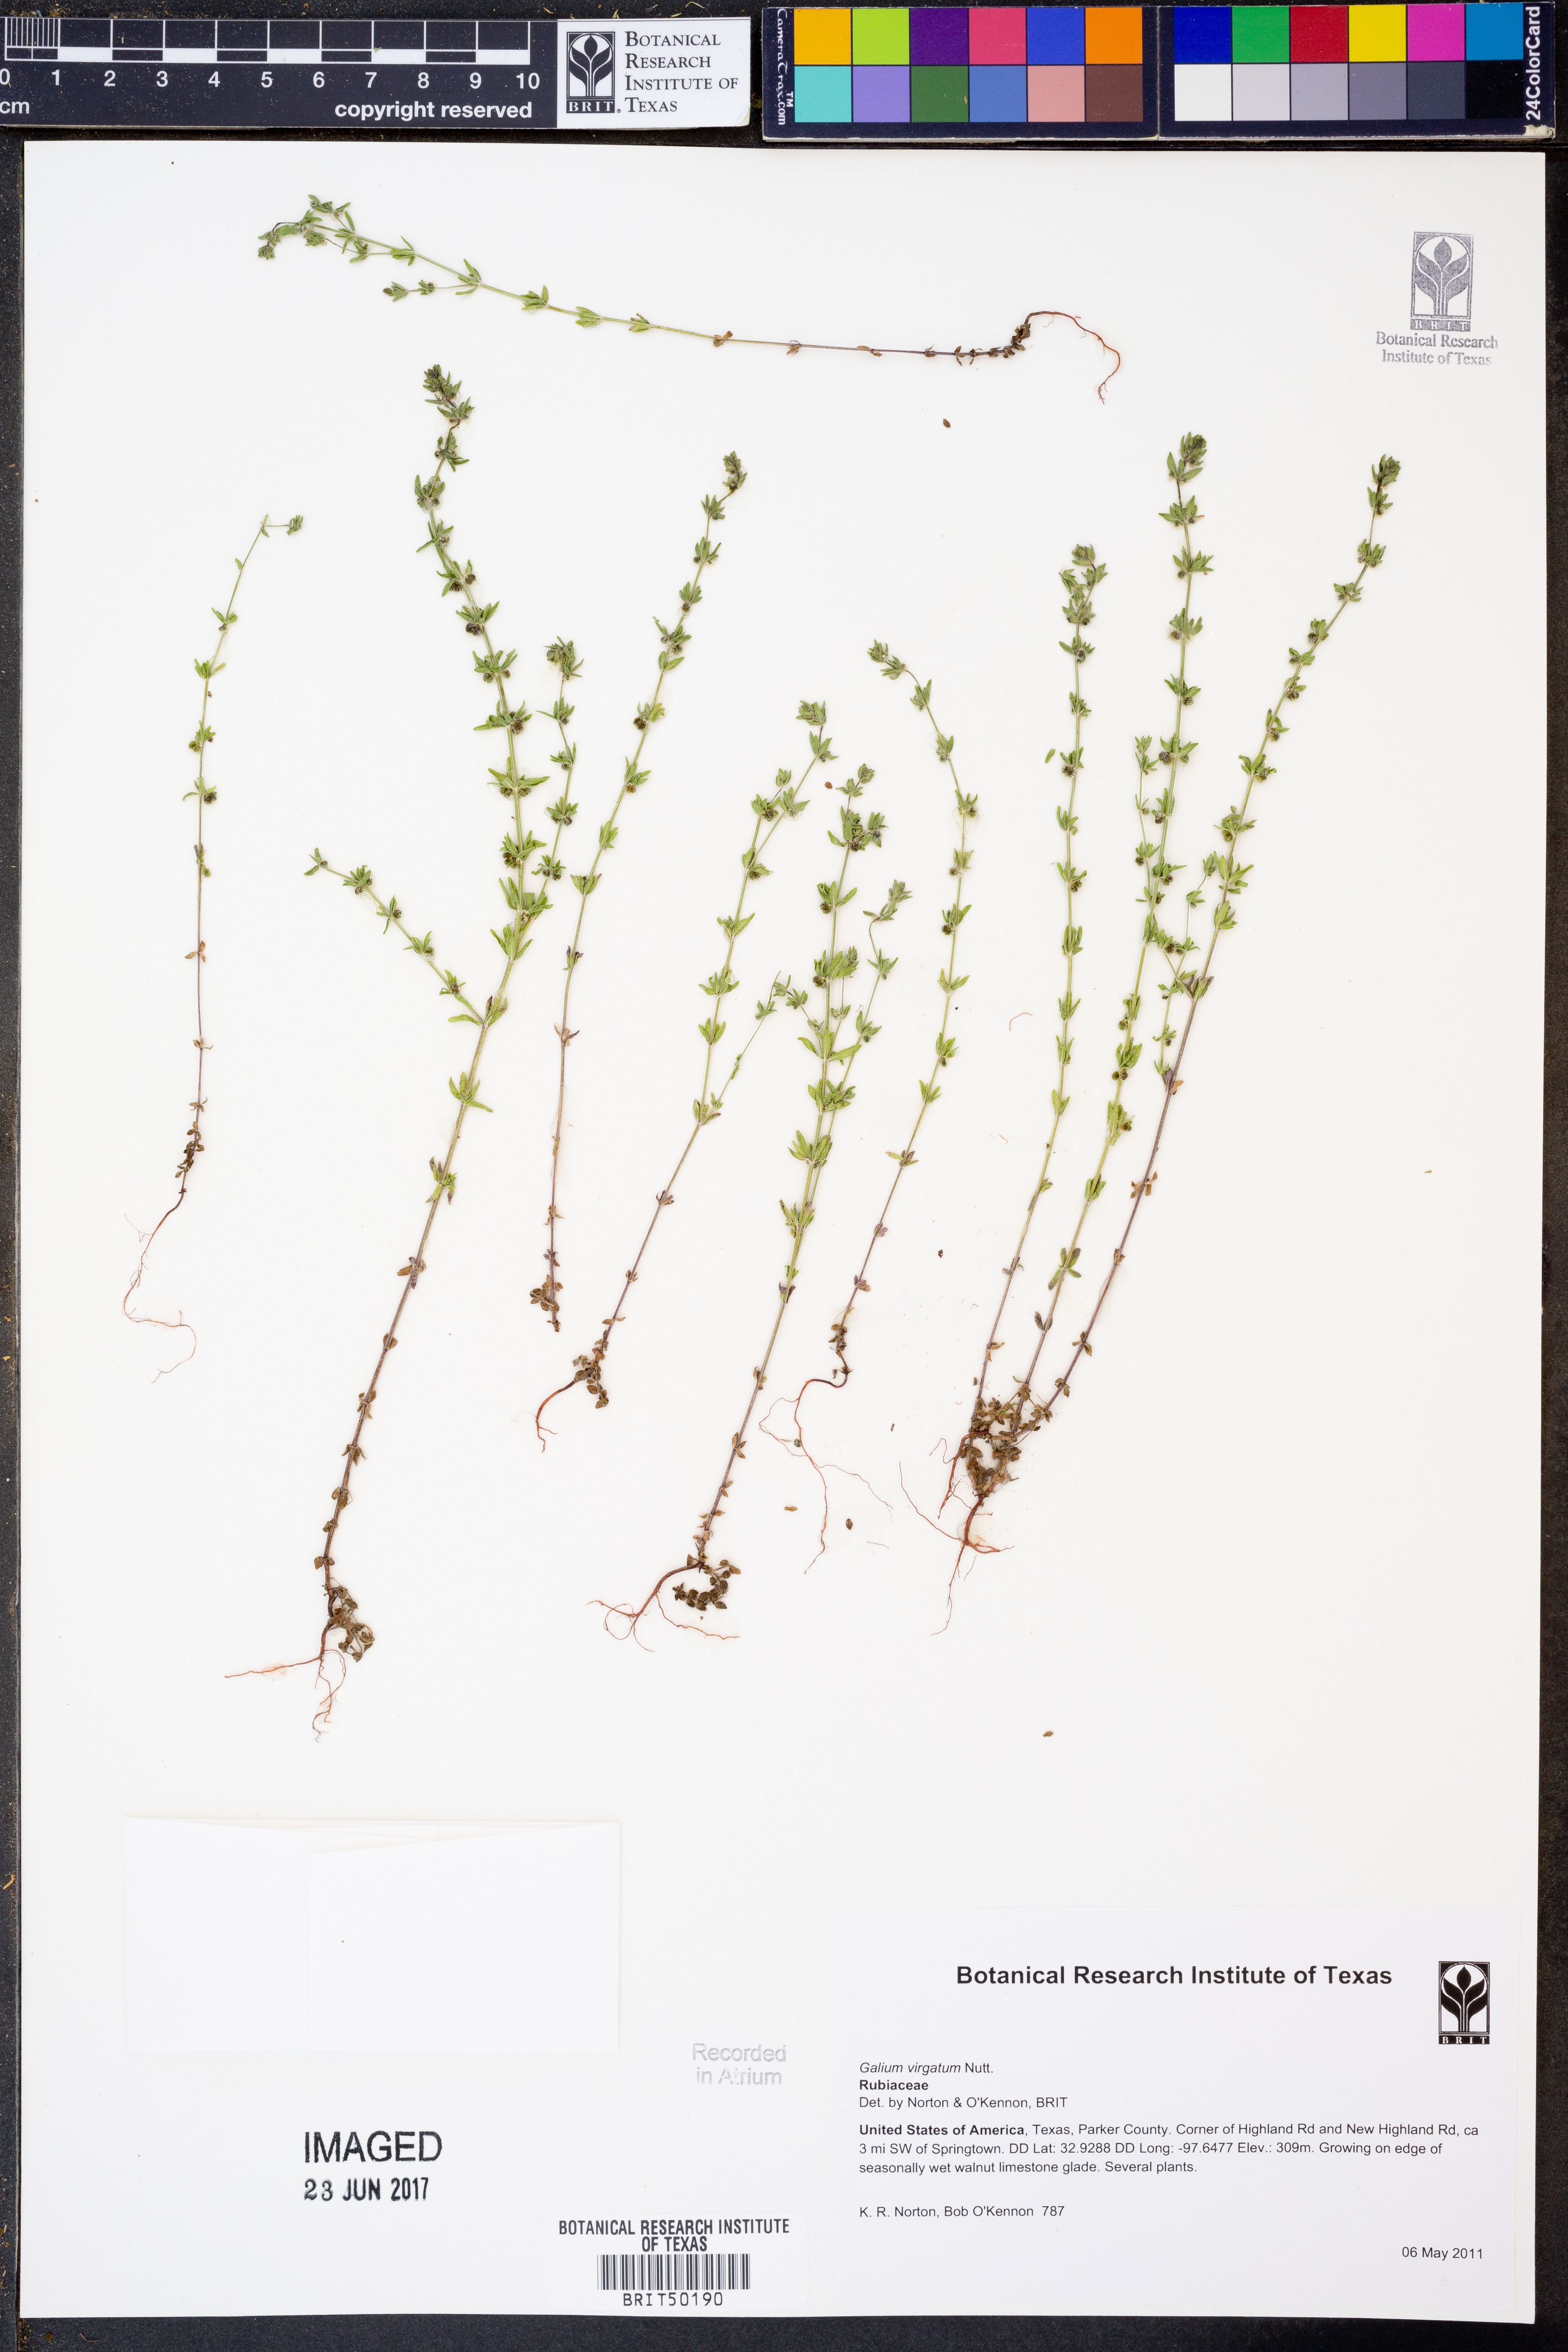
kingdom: Plantae
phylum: Tracheophyta
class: Magnoliopsida
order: Gentianales
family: Rubiaceae
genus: Galium
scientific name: Galium virgatum
